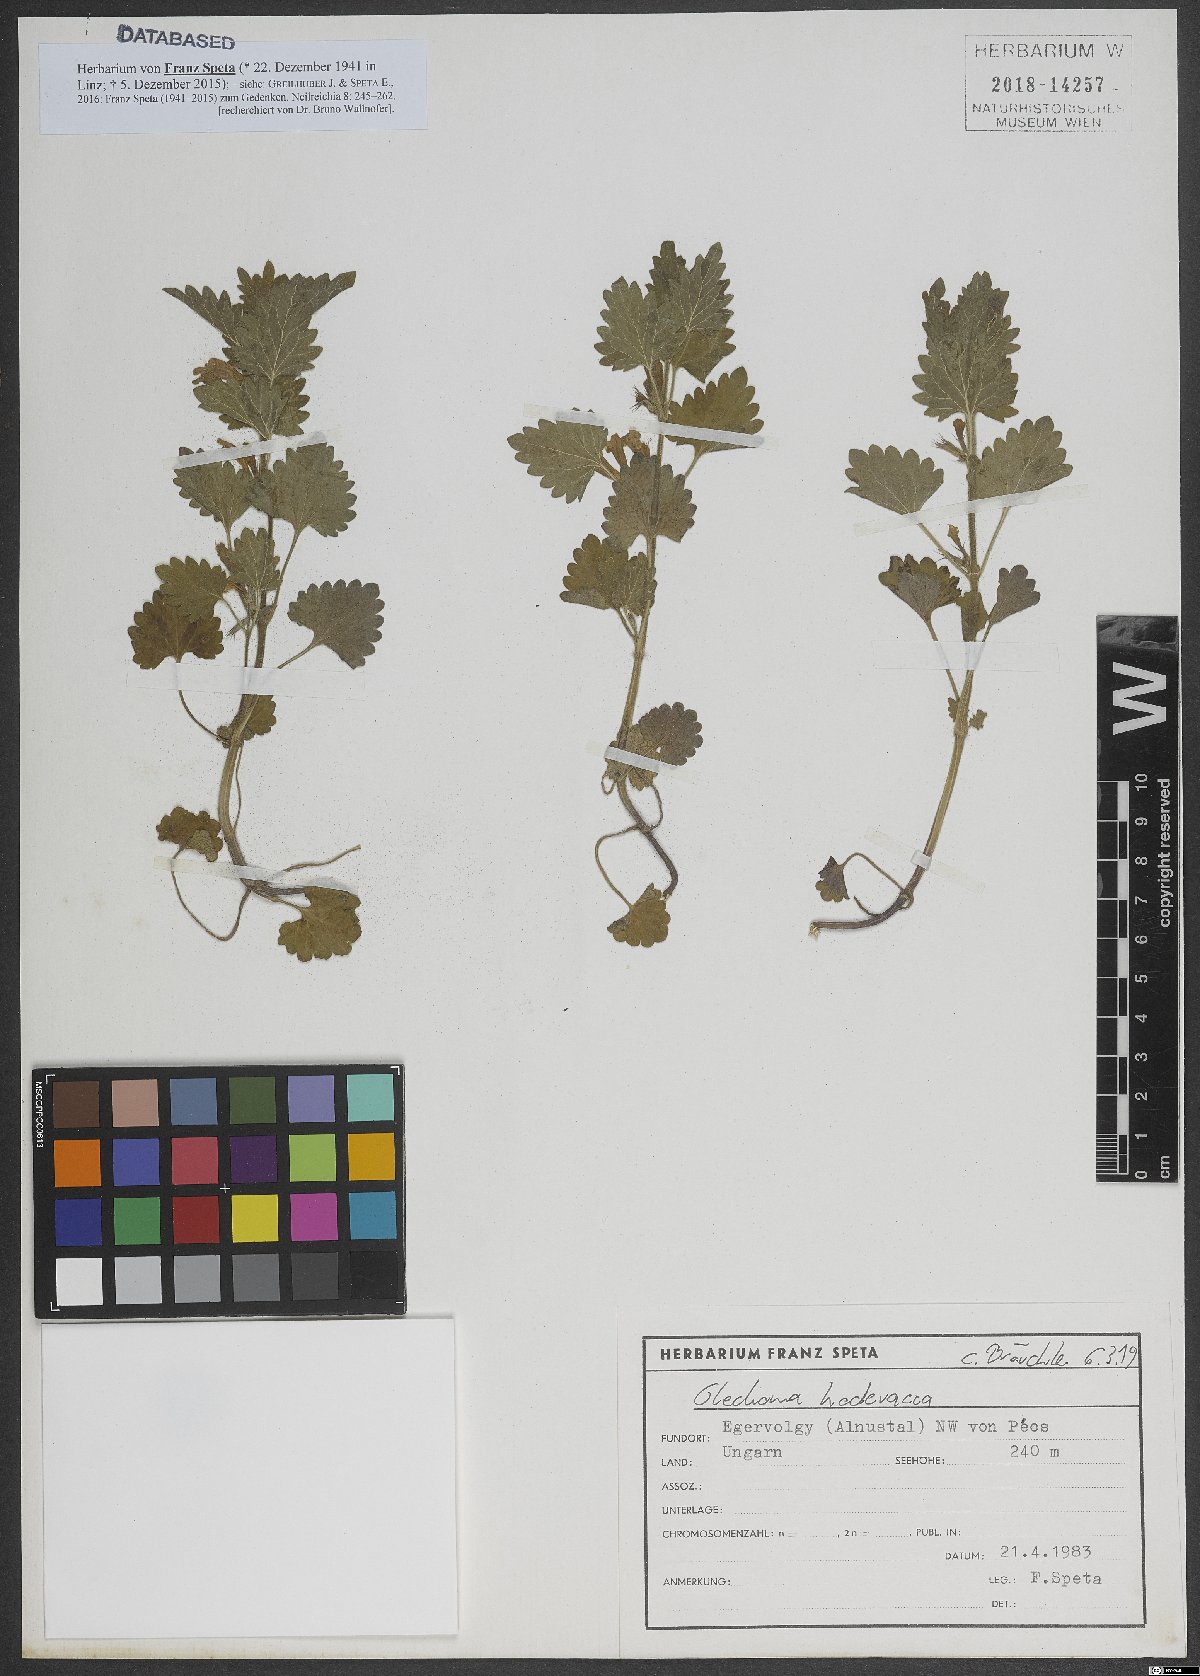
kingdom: Plantae
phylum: Tracheophyta
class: Magnoliopsida
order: Lamiales
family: Lamiaceae
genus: Glechoma
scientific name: Glechoma hederacea
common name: Ground ivy
